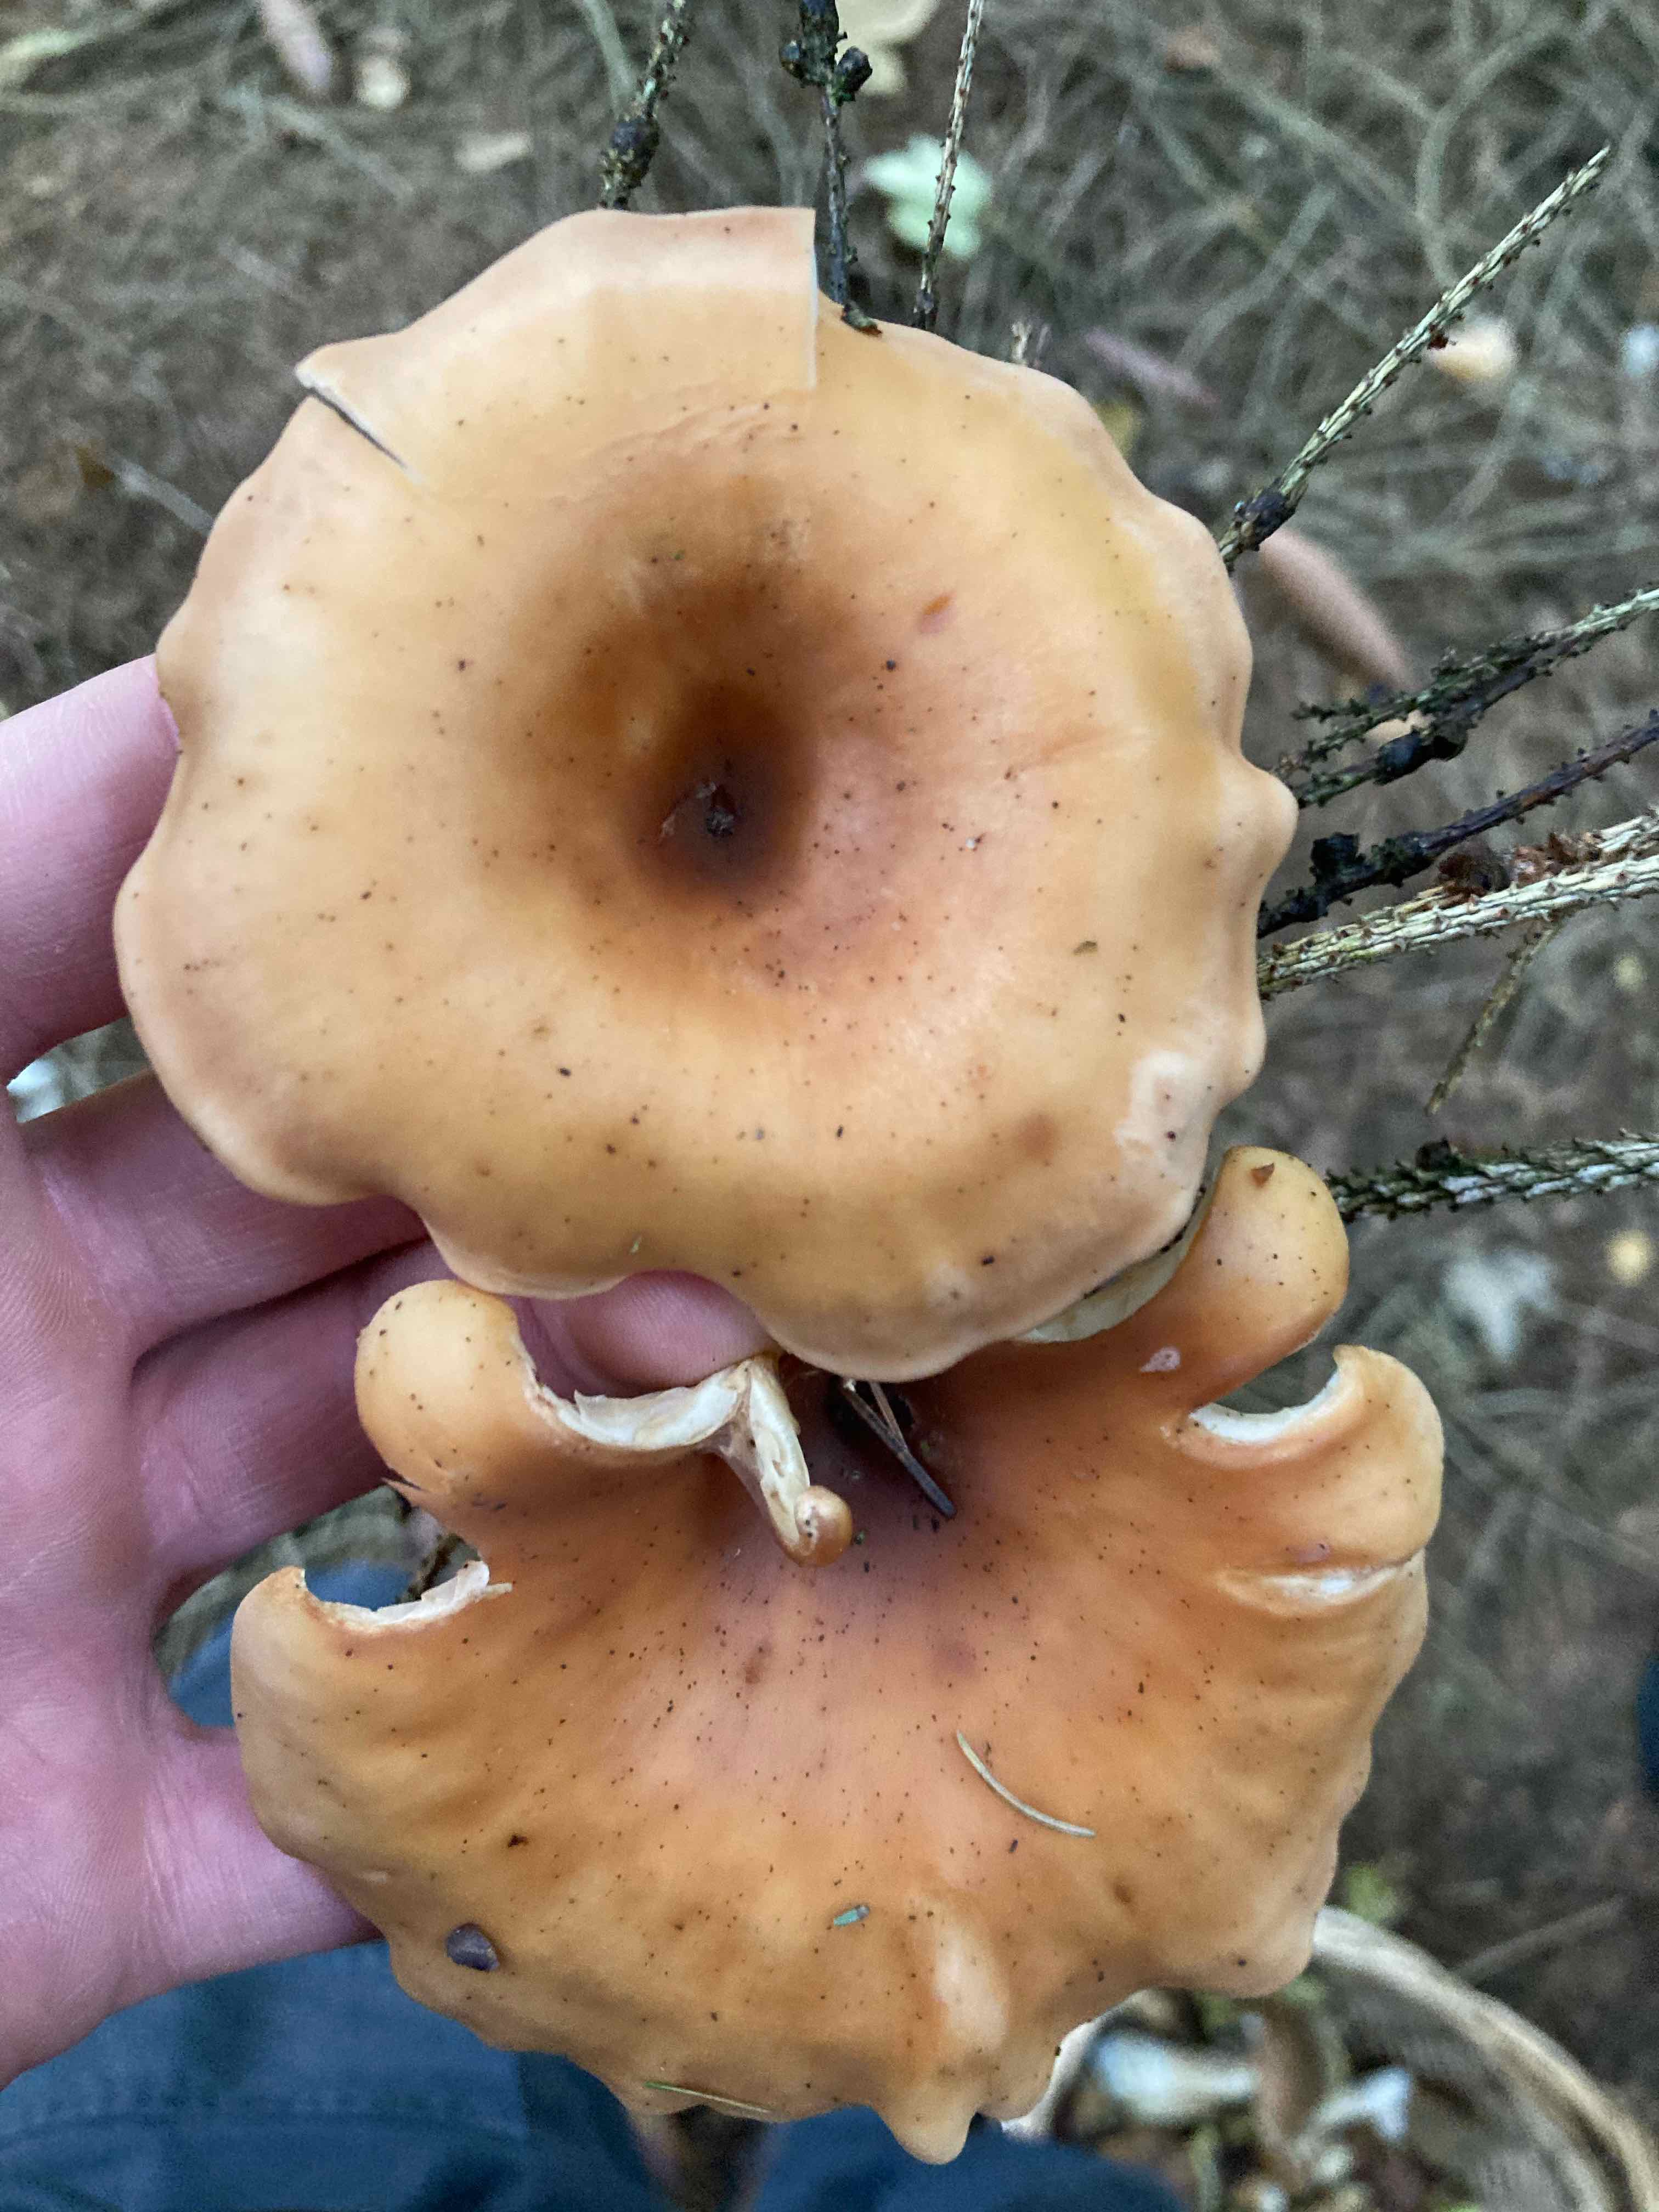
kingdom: Fungi
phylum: Basidiomycota
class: Agaricomycetes
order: Agaricales
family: Tricholomataceae
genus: Paralepista
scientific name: Paralepista flaccida
